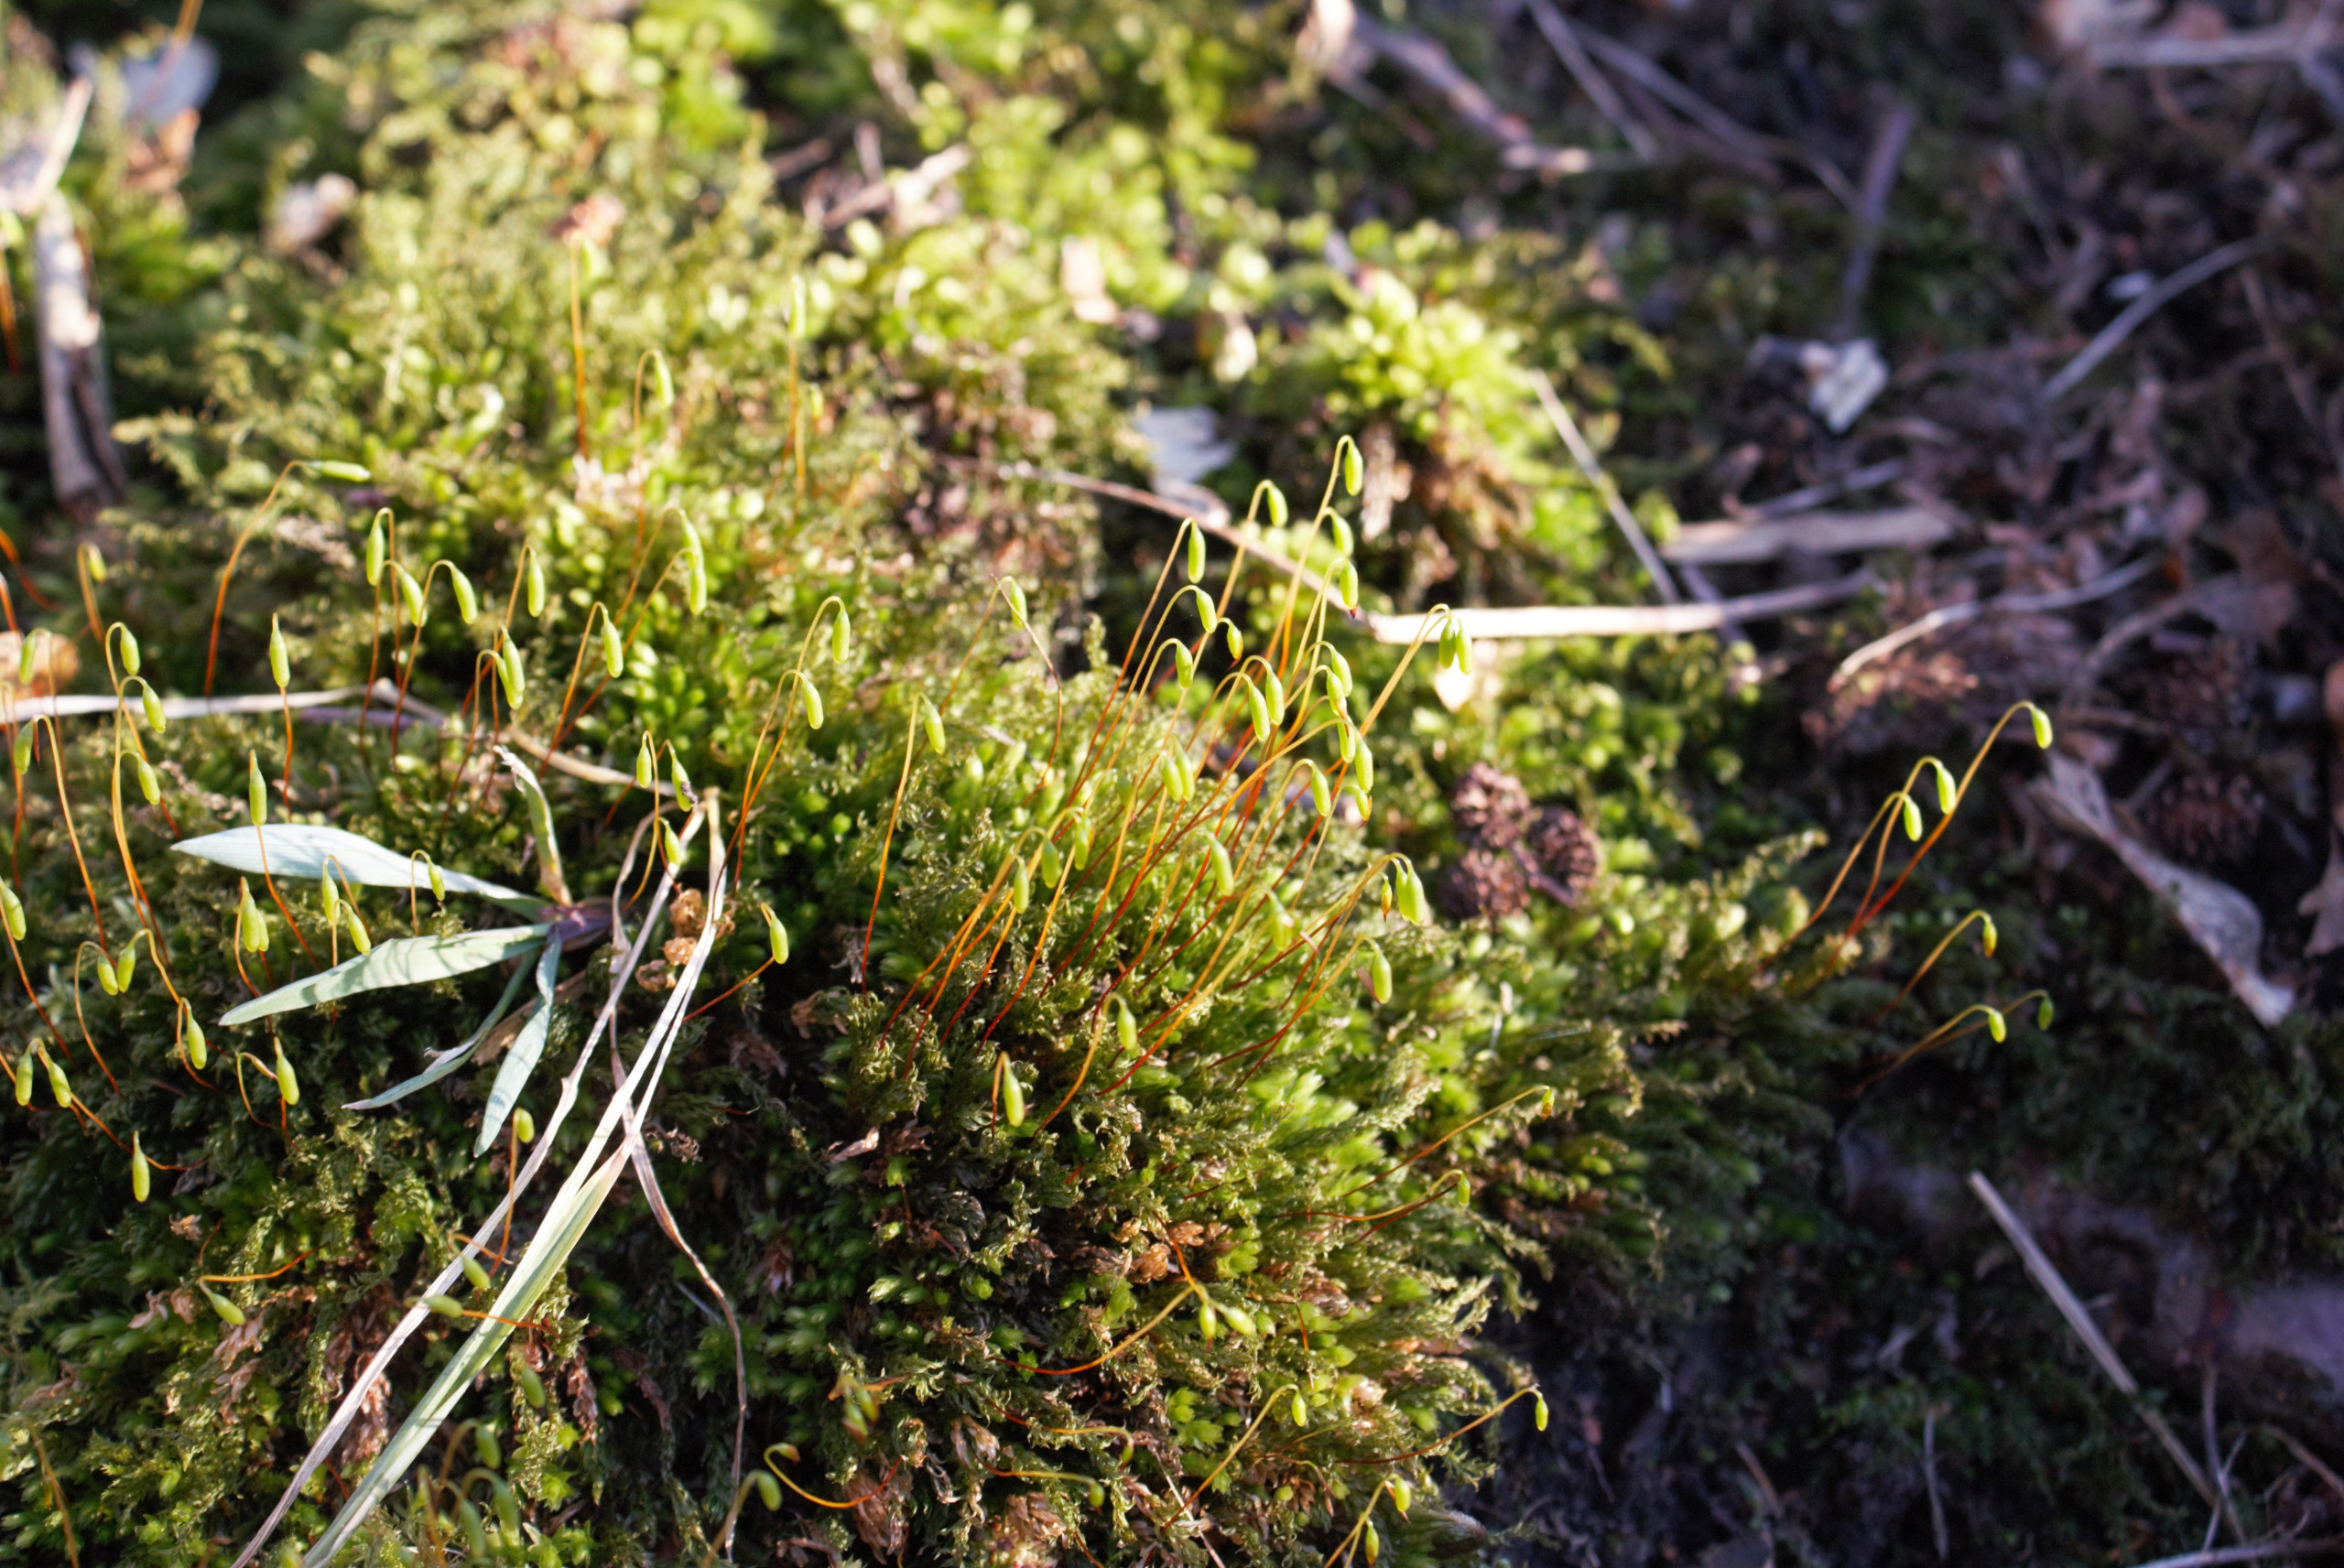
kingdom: Plantae
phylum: Bryophyta
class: Bryopsida
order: Bryales
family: Mniaceae
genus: Mnium
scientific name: Mnium hornum
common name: Brunfiltet stjernemos
